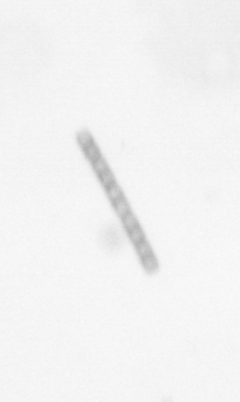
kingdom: Chromista
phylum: Ochrophyta
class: Bacillariophyceae
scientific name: Bacillariophyceae
